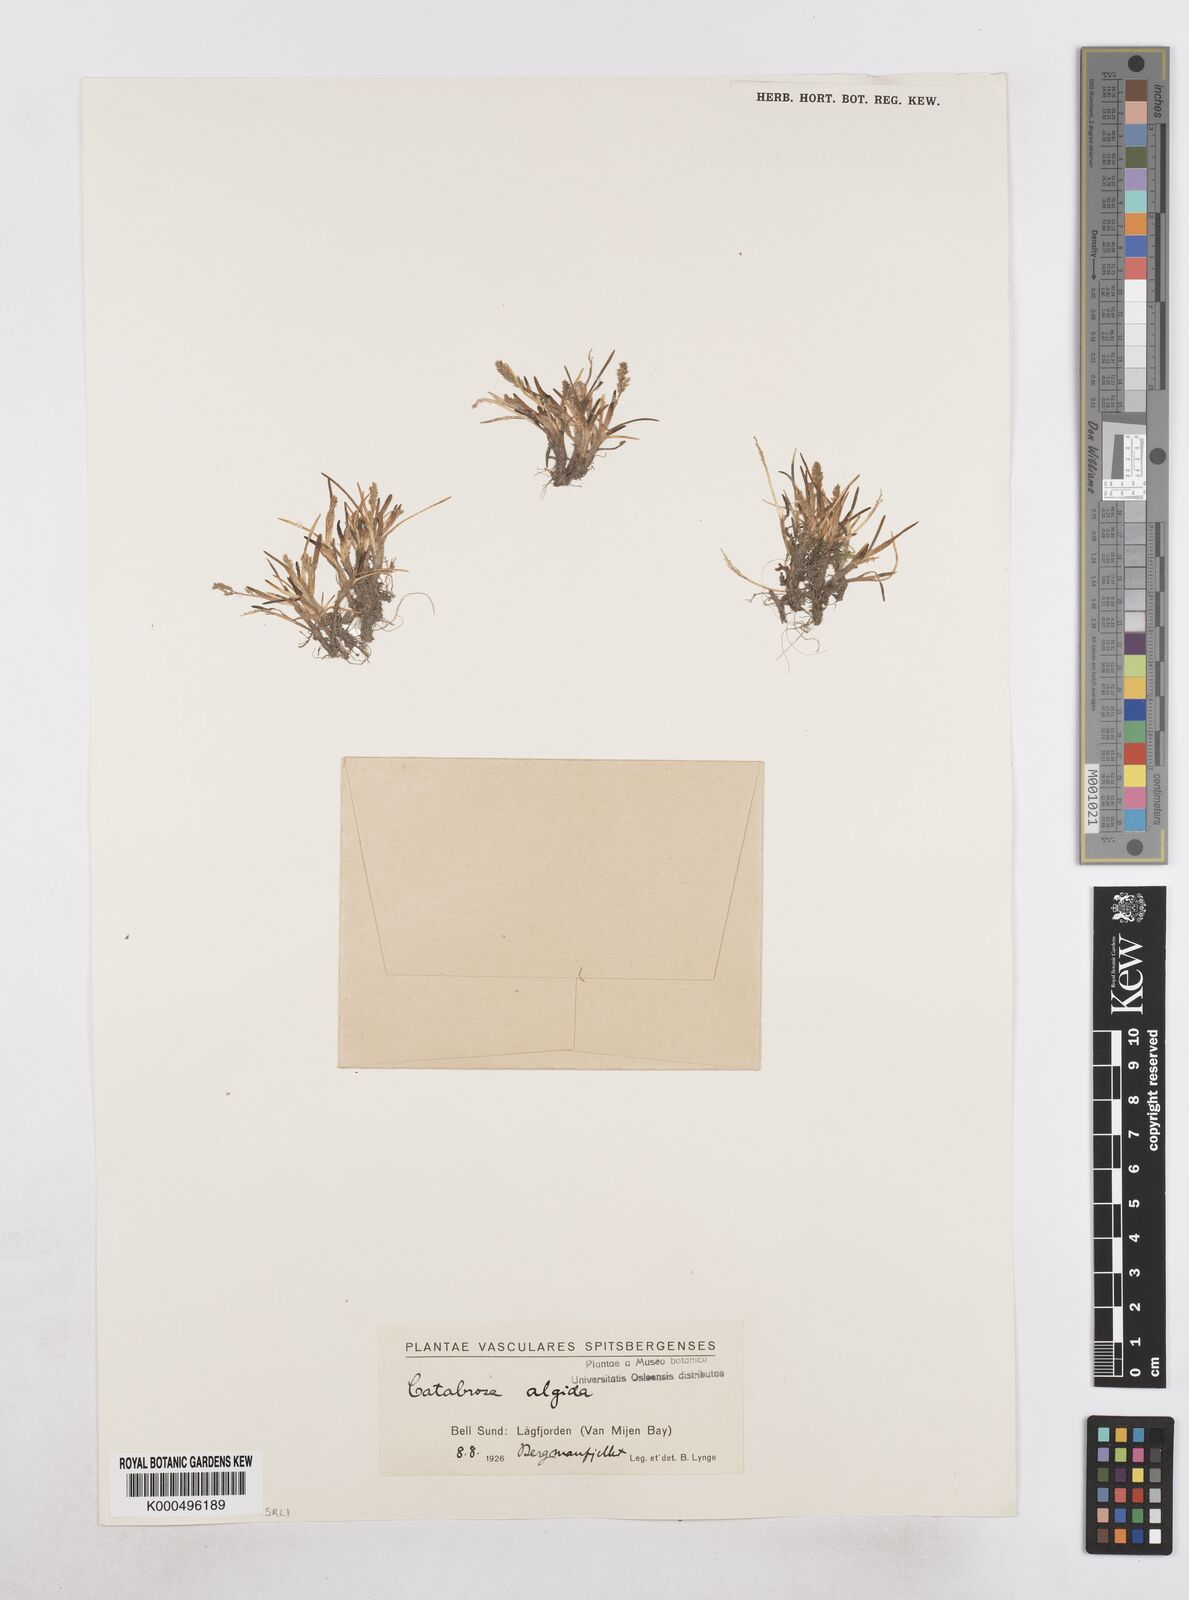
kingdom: Plantae
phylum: Tracheophyta
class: Liliopsida
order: Poales
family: Poaceae
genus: Phippsia
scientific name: Phippsia algida
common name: Ice grass
